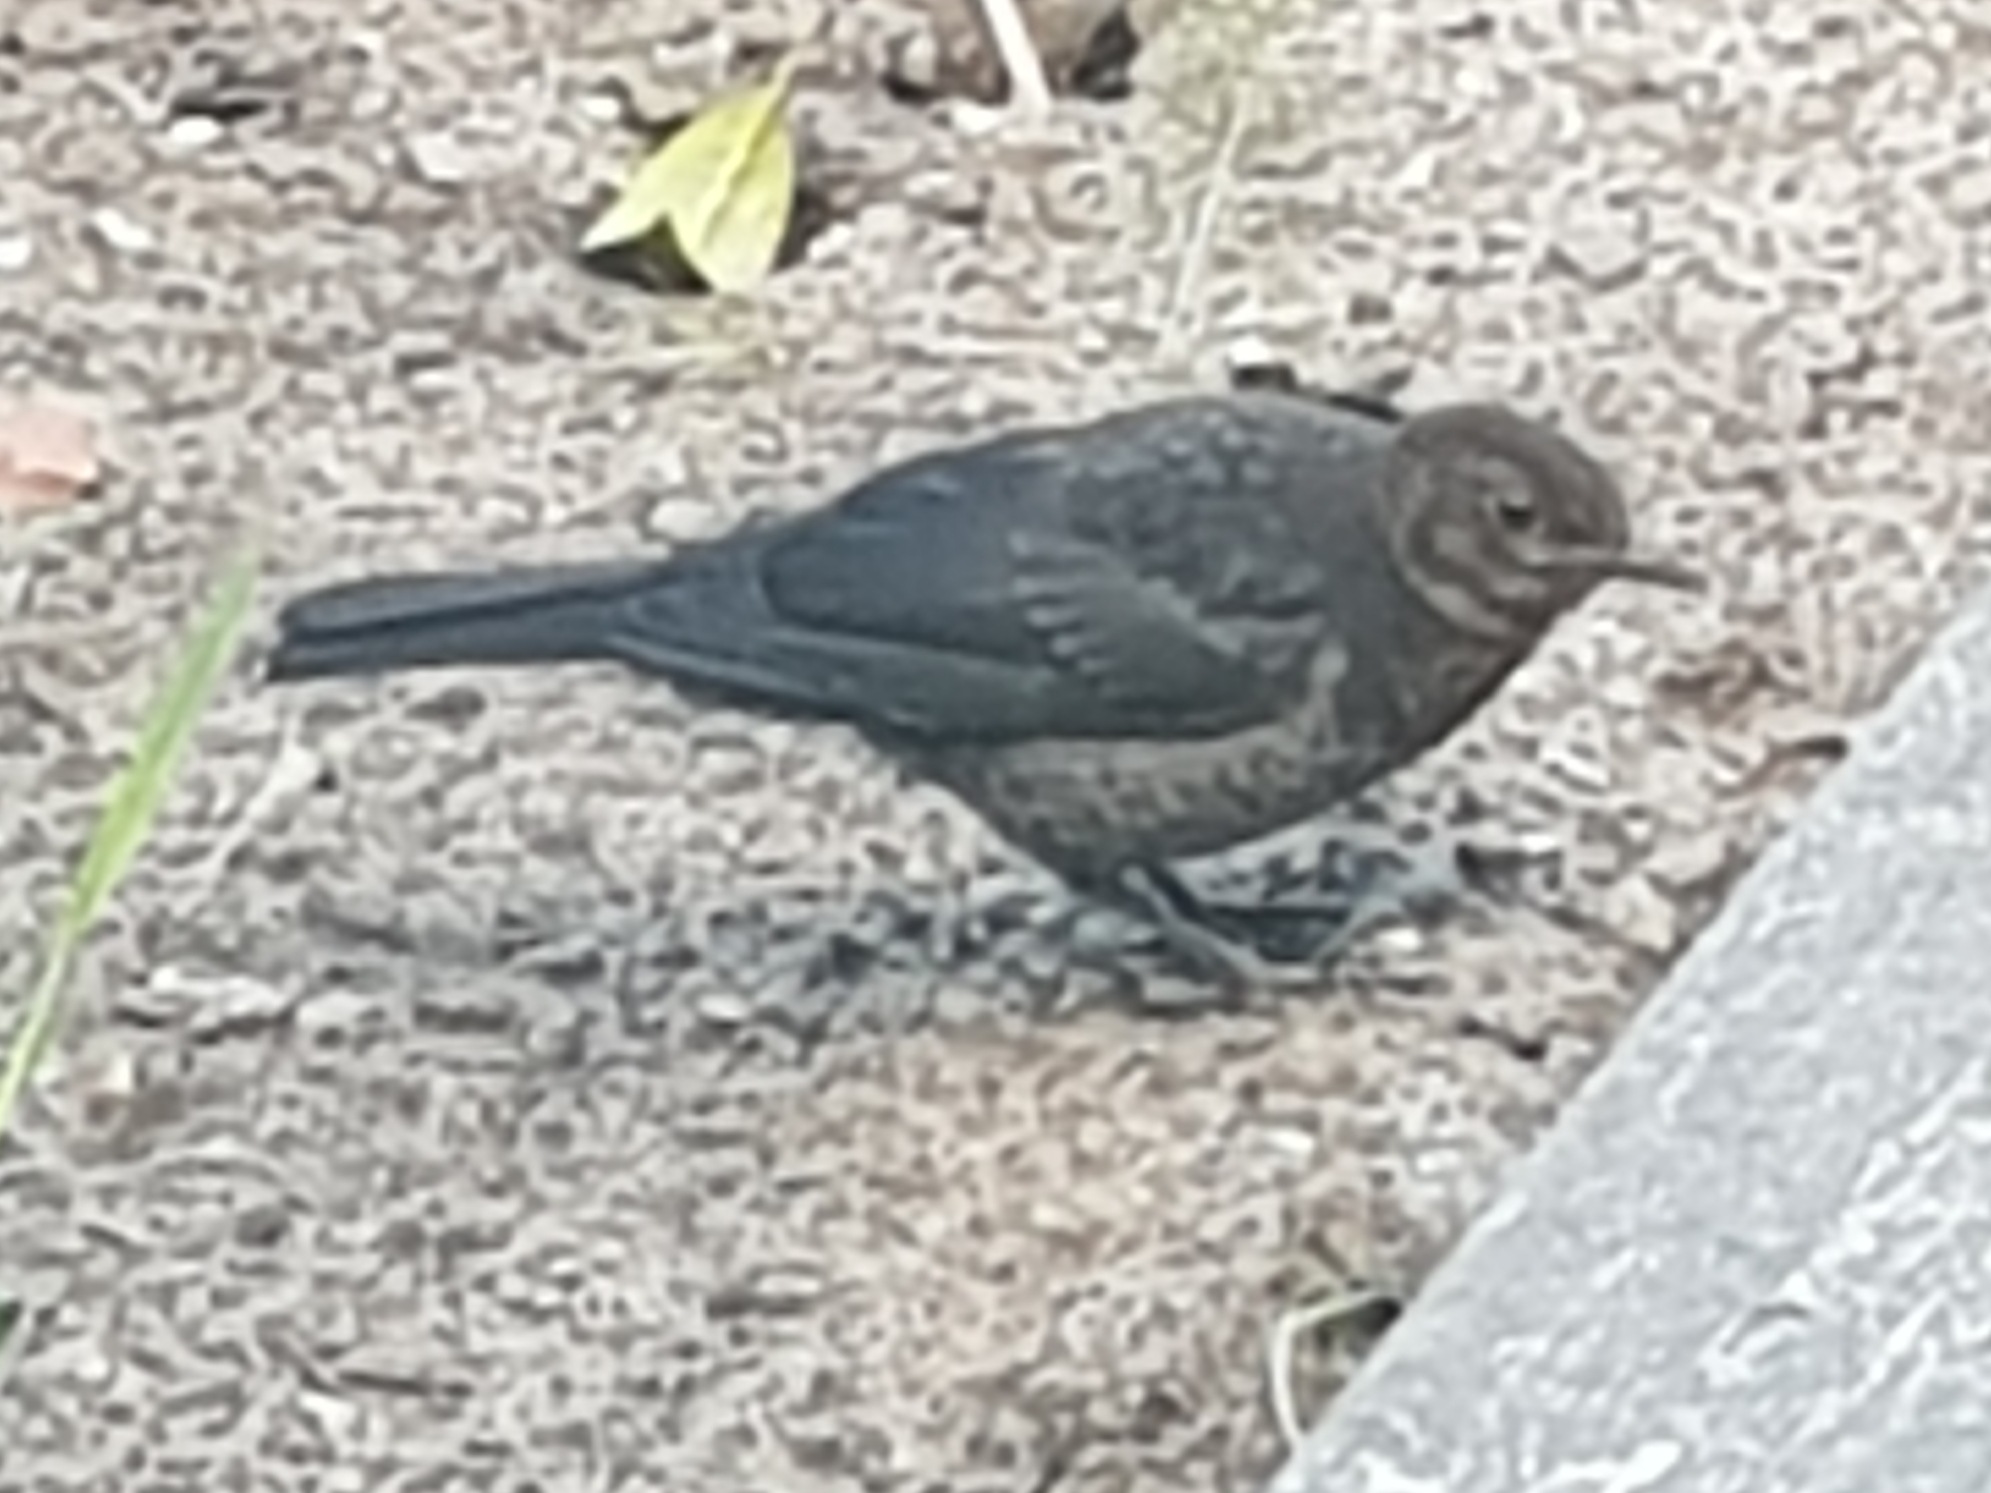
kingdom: Animalia
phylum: Chordata
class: Aves
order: Passeriformes
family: Turdidae
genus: Turdus
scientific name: Turdus merula
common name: Solsort
